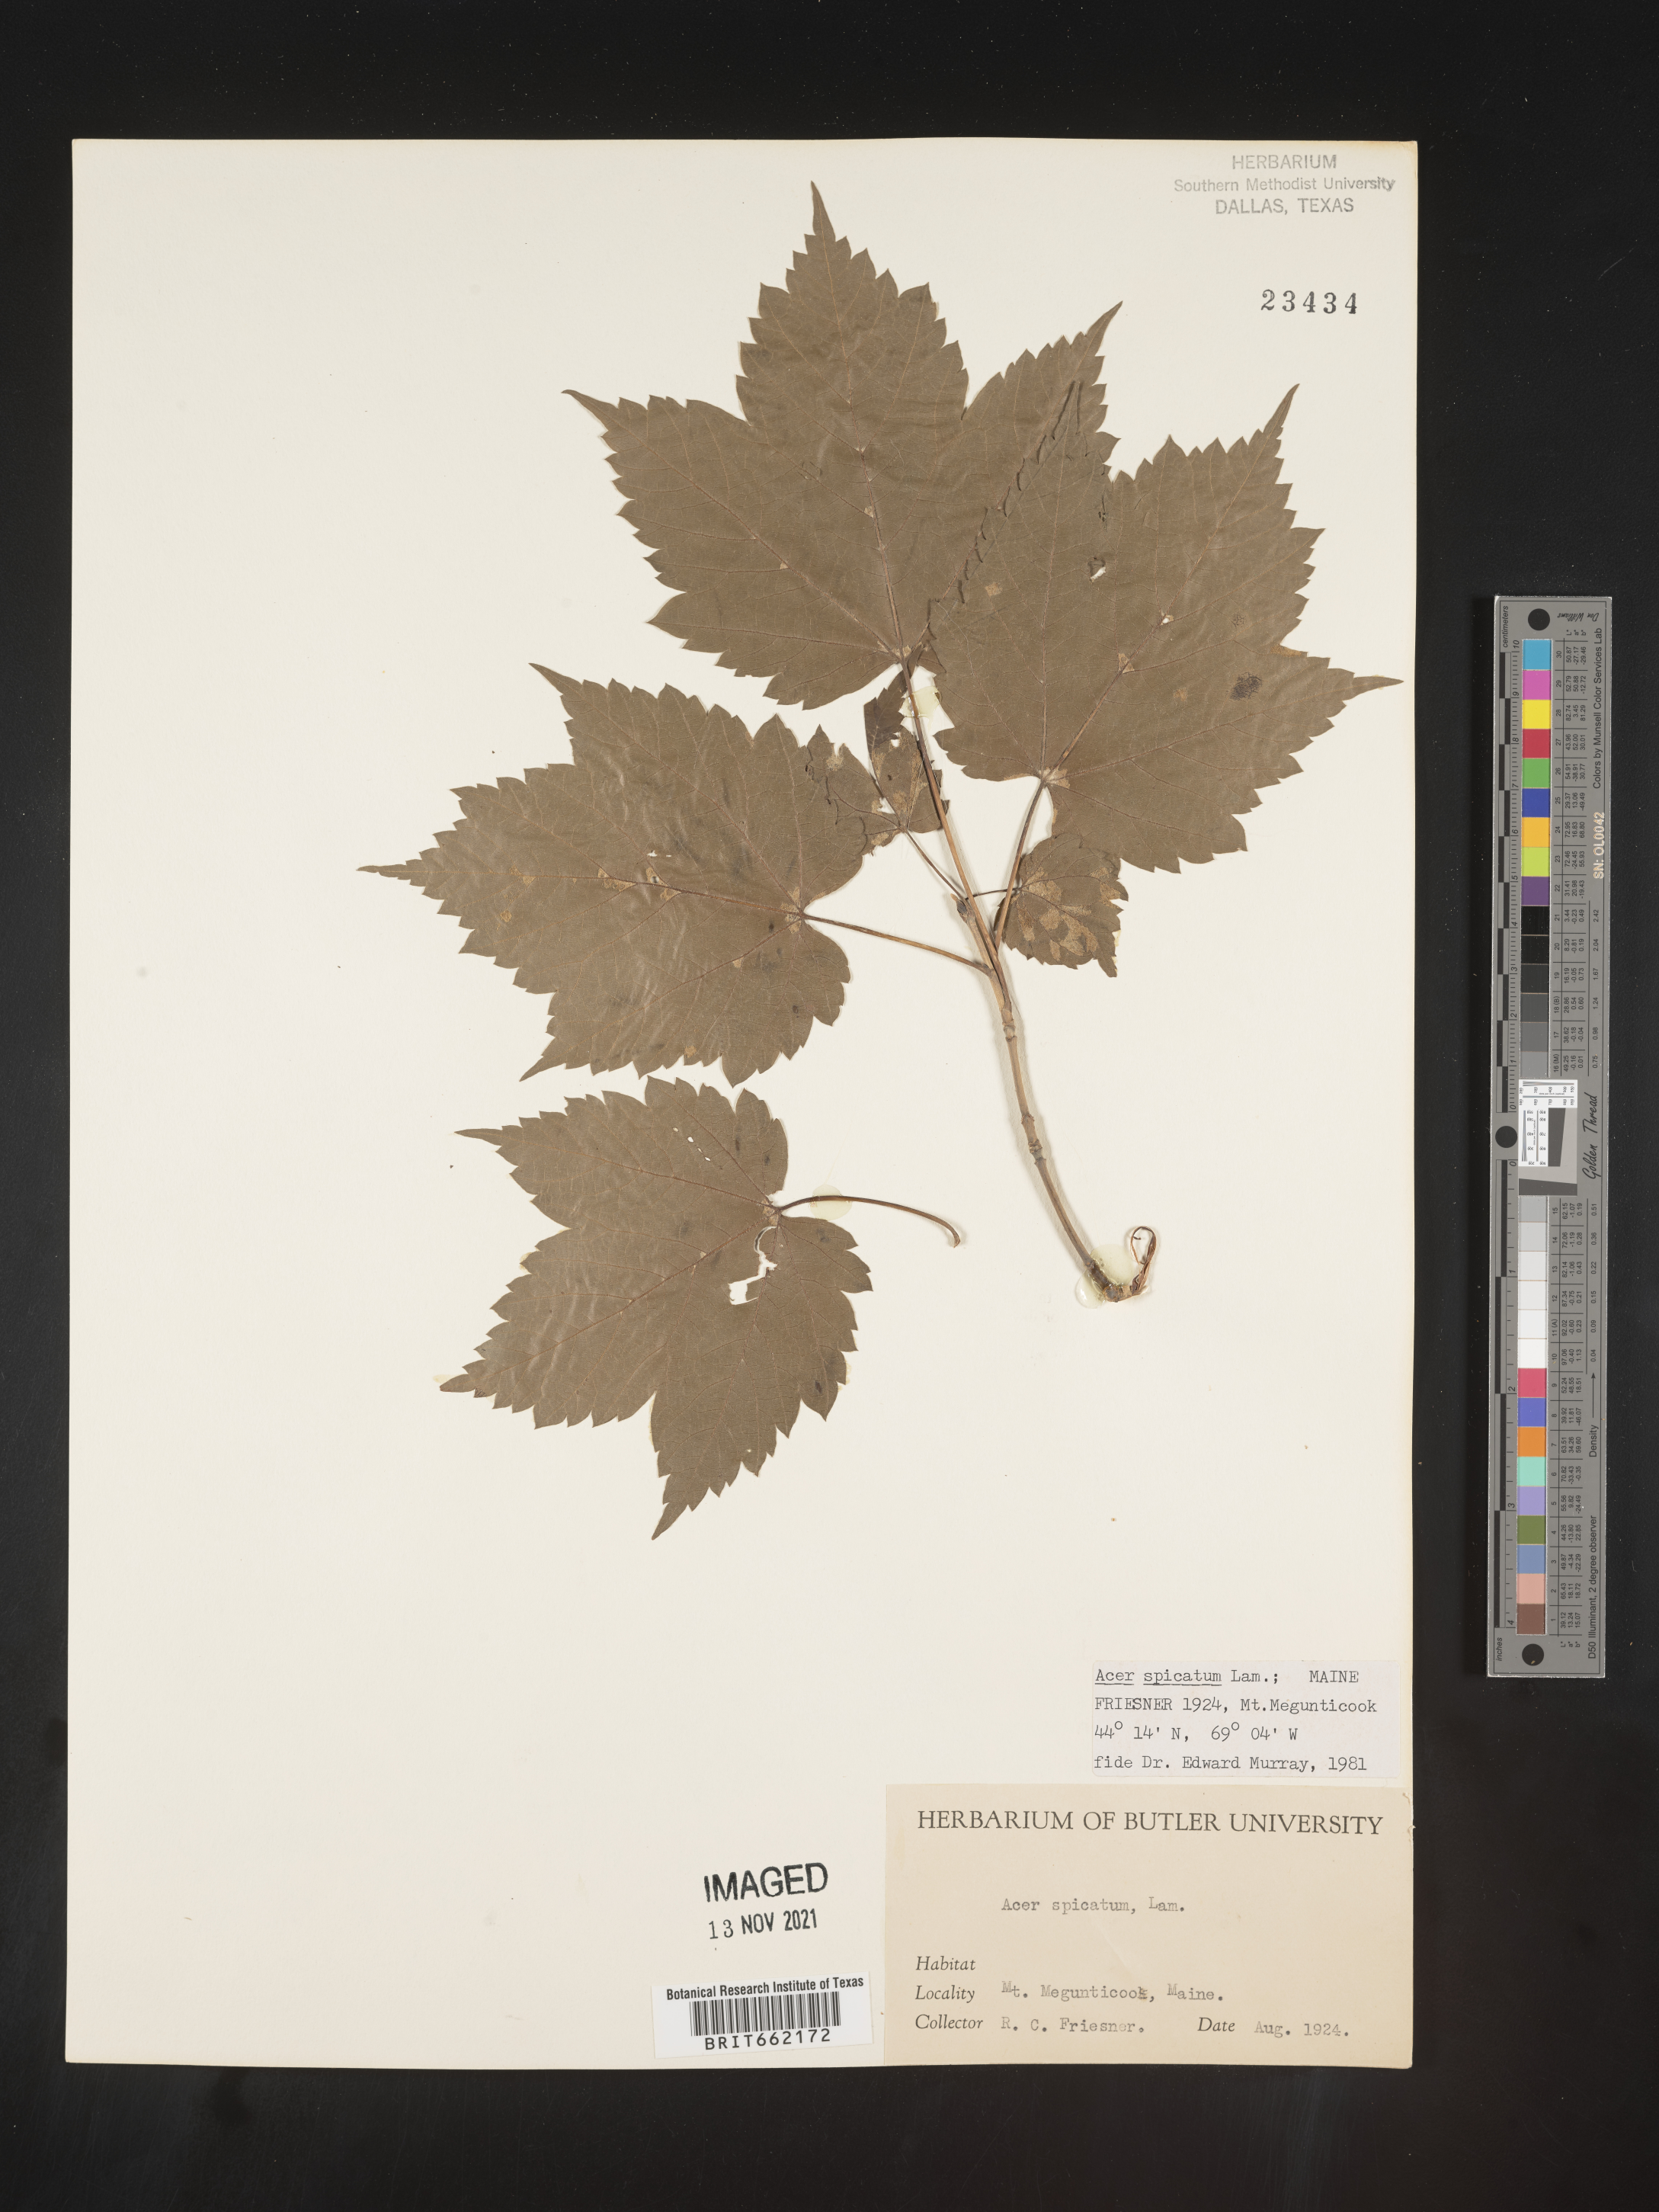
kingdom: Plantae
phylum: Tracheophyta
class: Magnoliopsida
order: Sapindales
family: Sapindaceae
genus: Acer
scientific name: Acer spicatum
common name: Mountain maple
